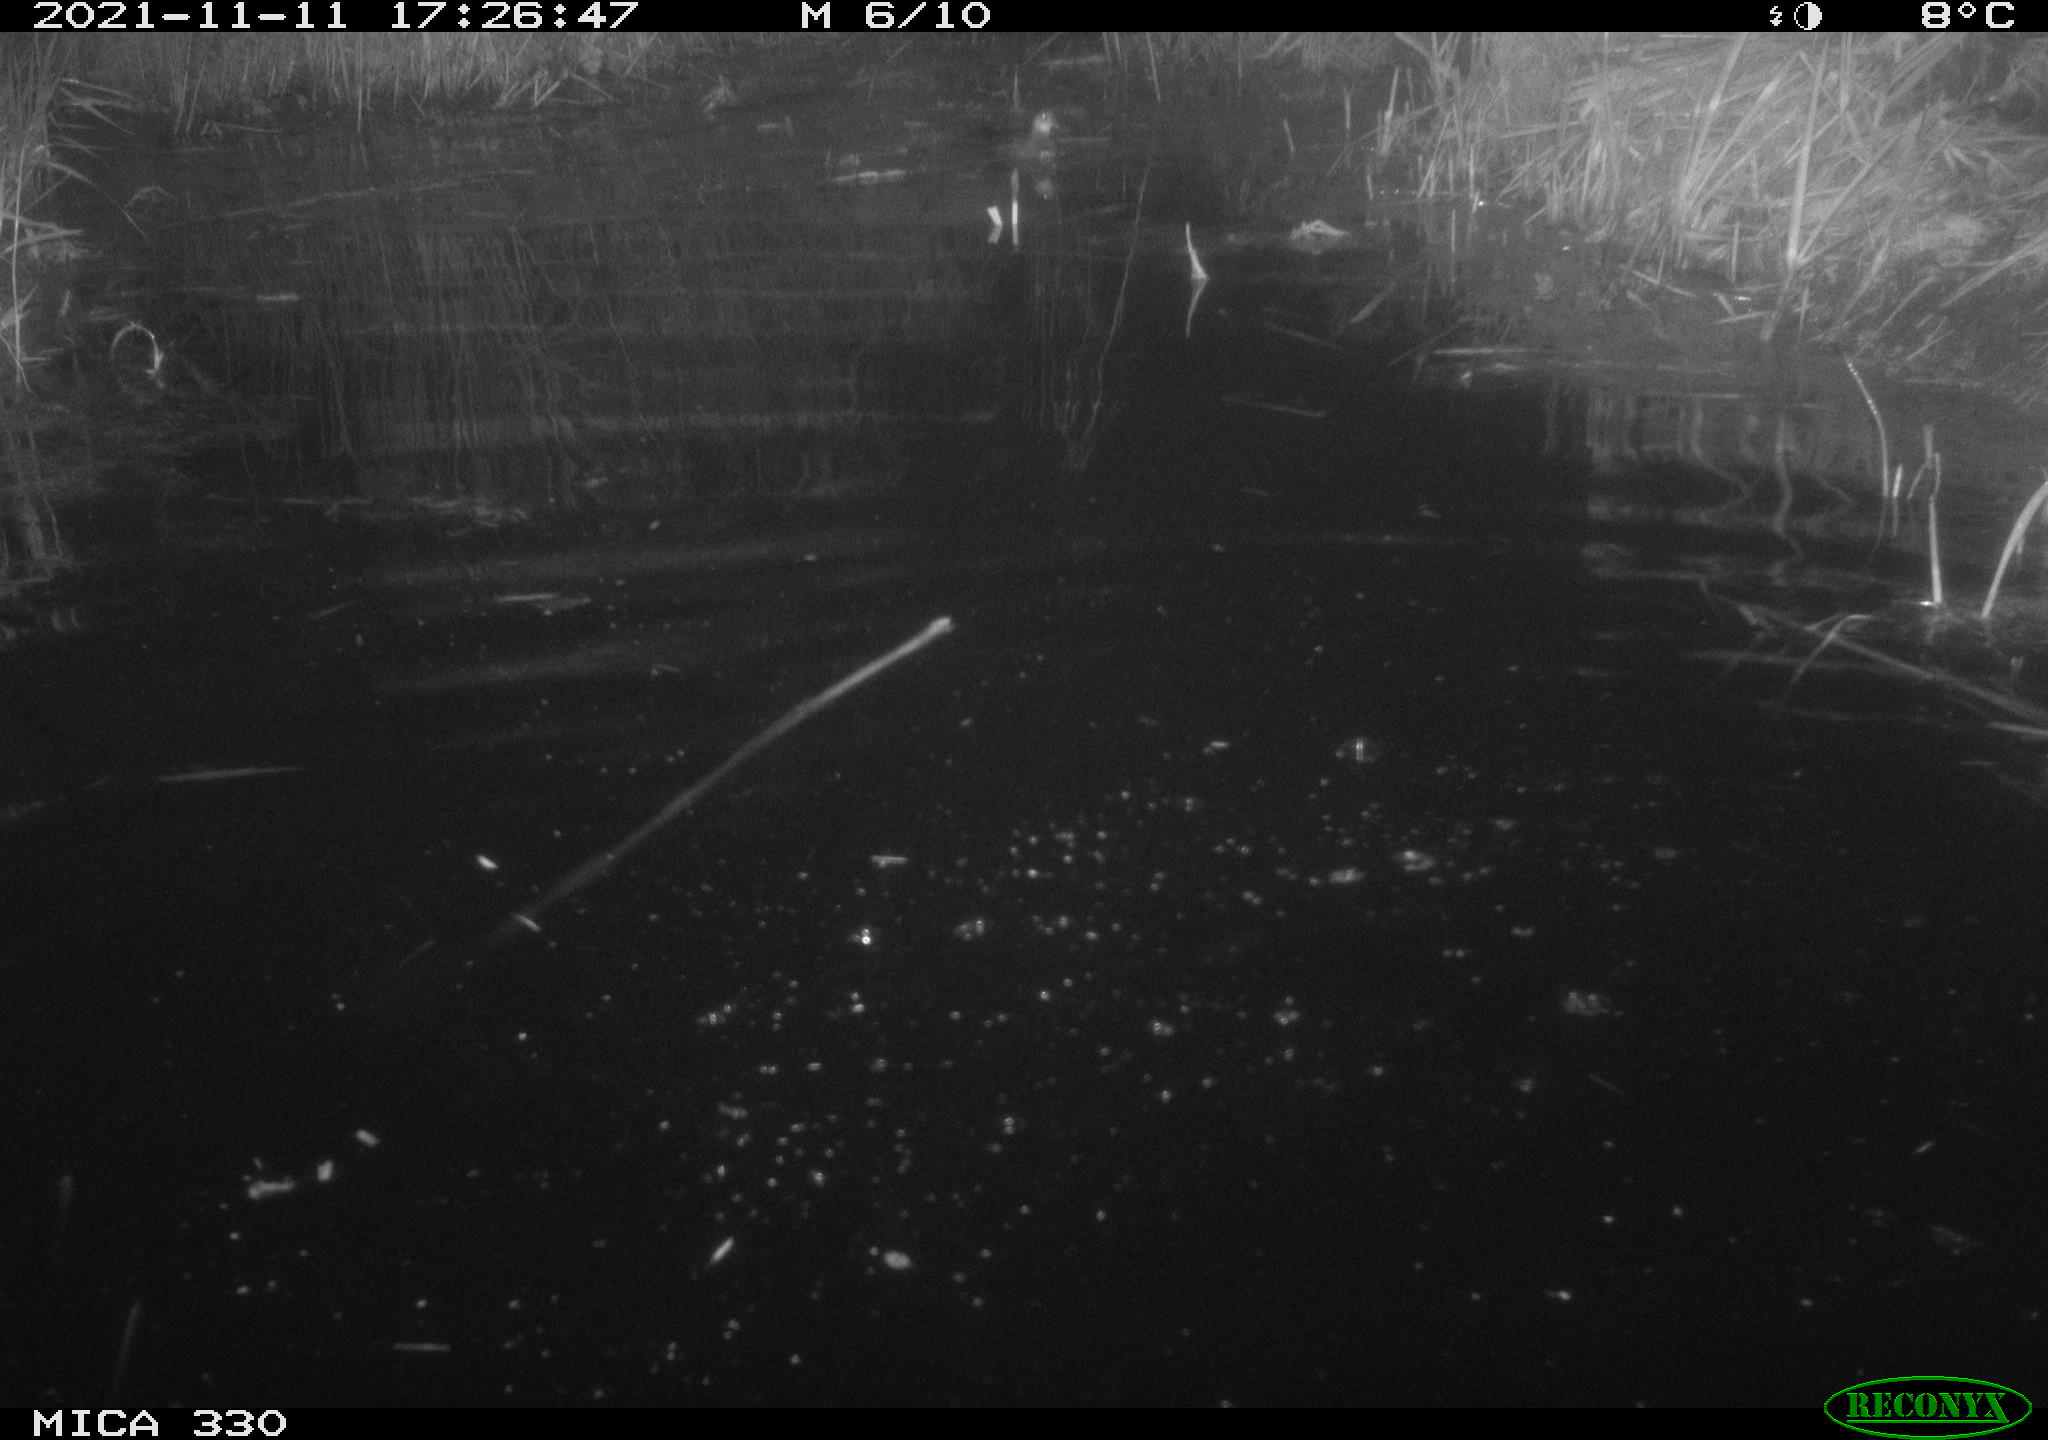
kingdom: Animalia
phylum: Chordata
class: Aves
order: Gruiformes
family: Rallidae
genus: Gallinula
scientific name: Gallinula chloropus
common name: Common moorhen
